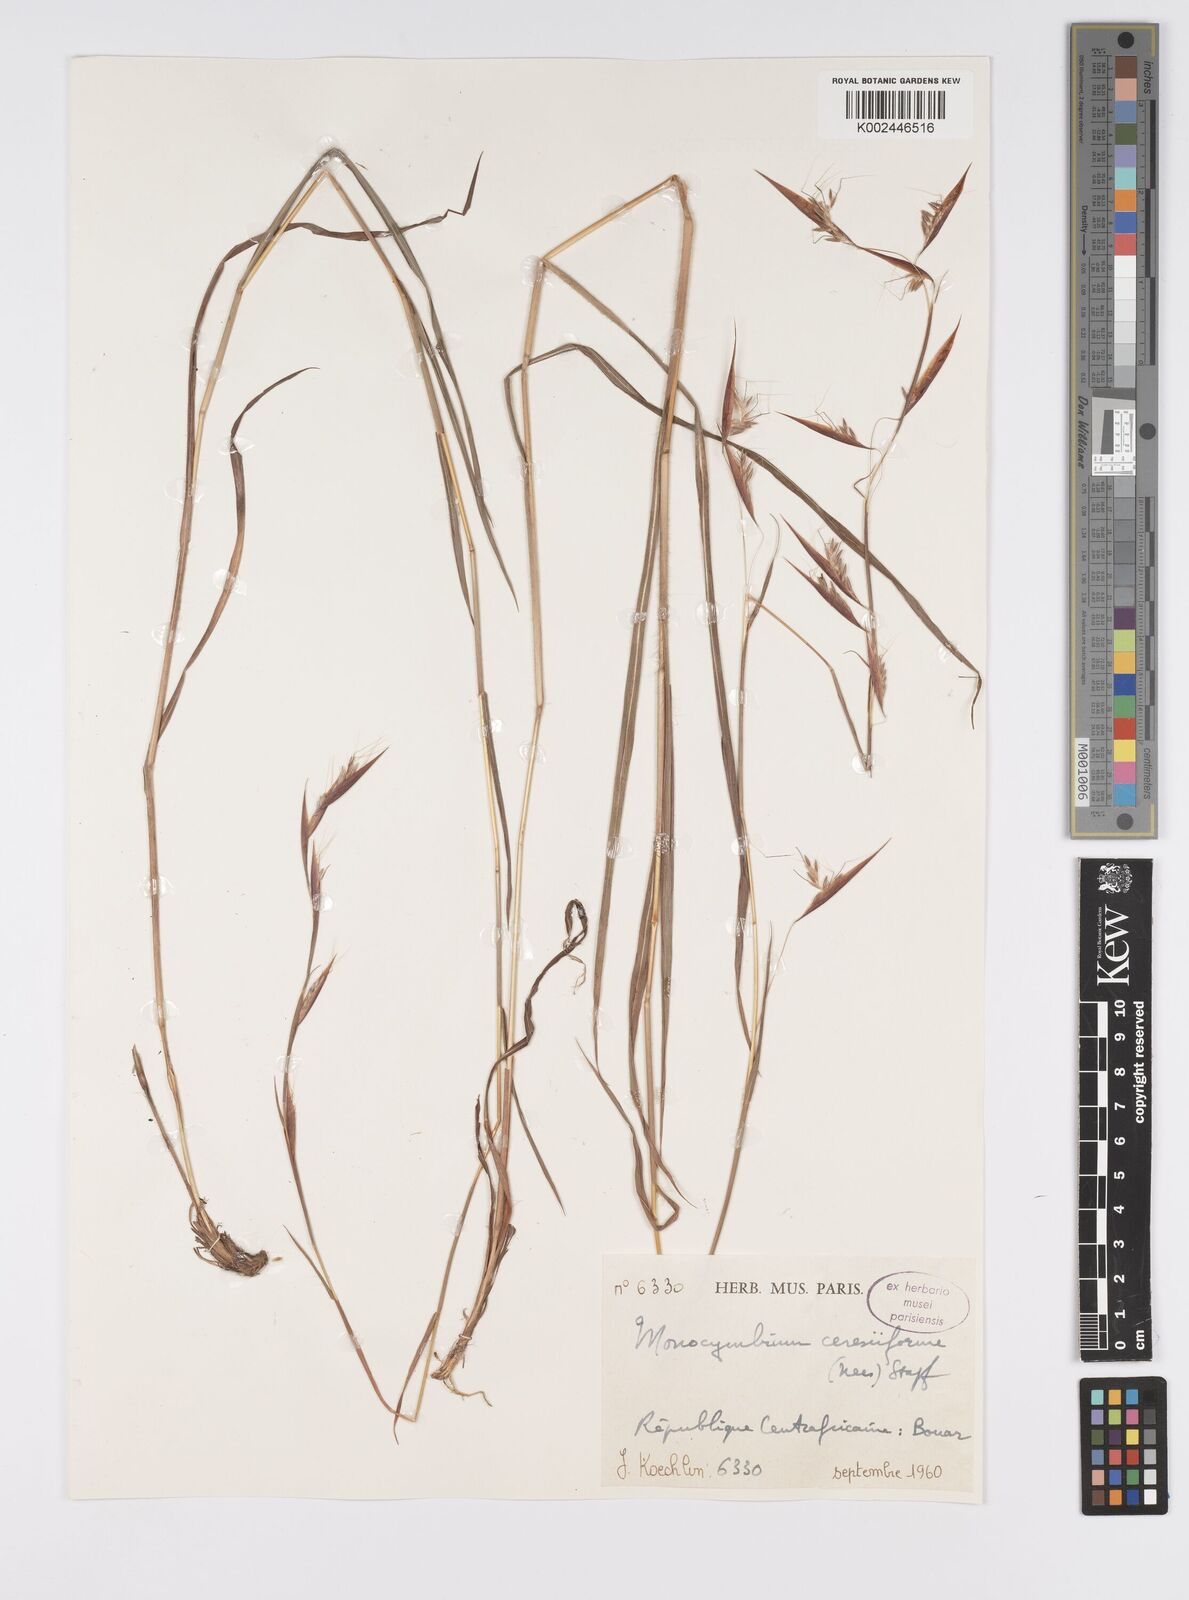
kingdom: Plantae
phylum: Tracheophyta
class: Liliopsida
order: Poales
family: Poaceae
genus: Monocymbium
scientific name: Monocymbium ceresiiforme
